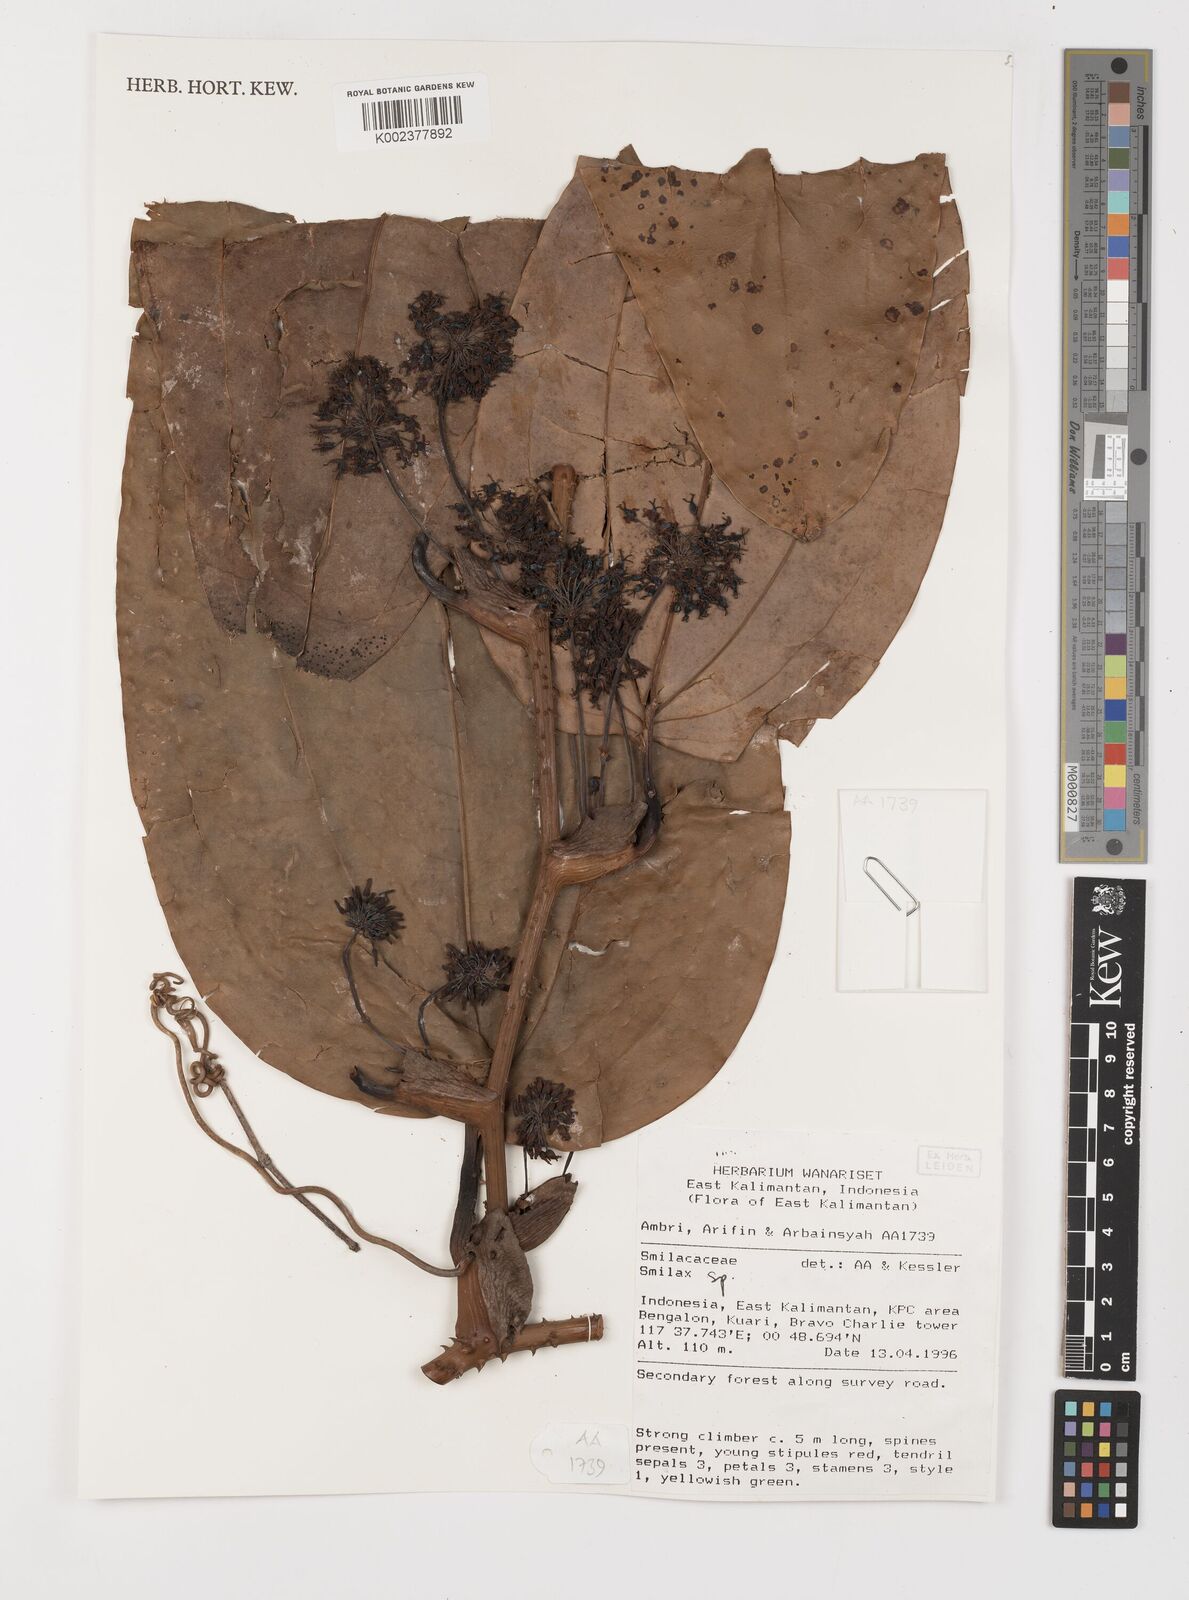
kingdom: Plantae
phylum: Tracheophyta
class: Liliopsida
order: Liliales
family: Smilacaceae
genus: Smilax
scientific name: Smilax
